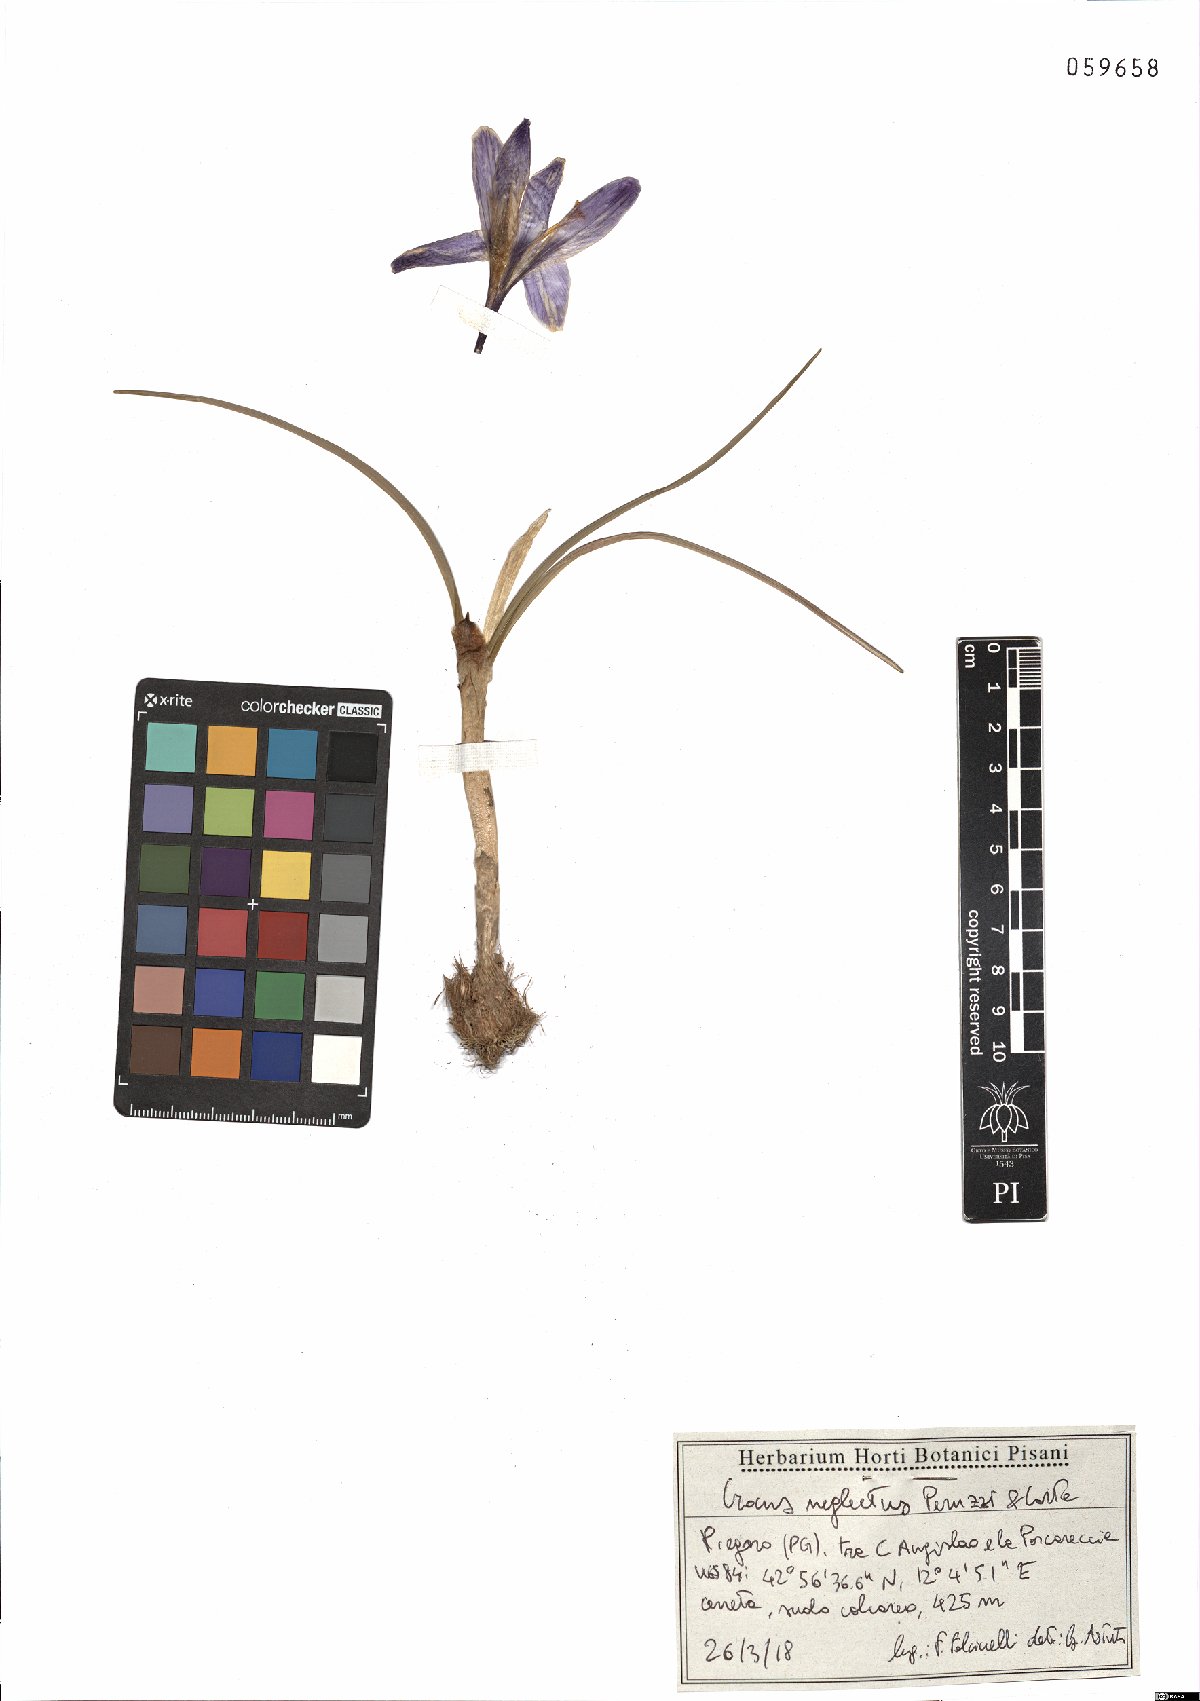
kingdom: Plantae
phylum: Tracheophyta
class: Liliopsida
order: Asparagales
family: Iridaceae
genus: Crocus
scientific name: Crocus neglectus
